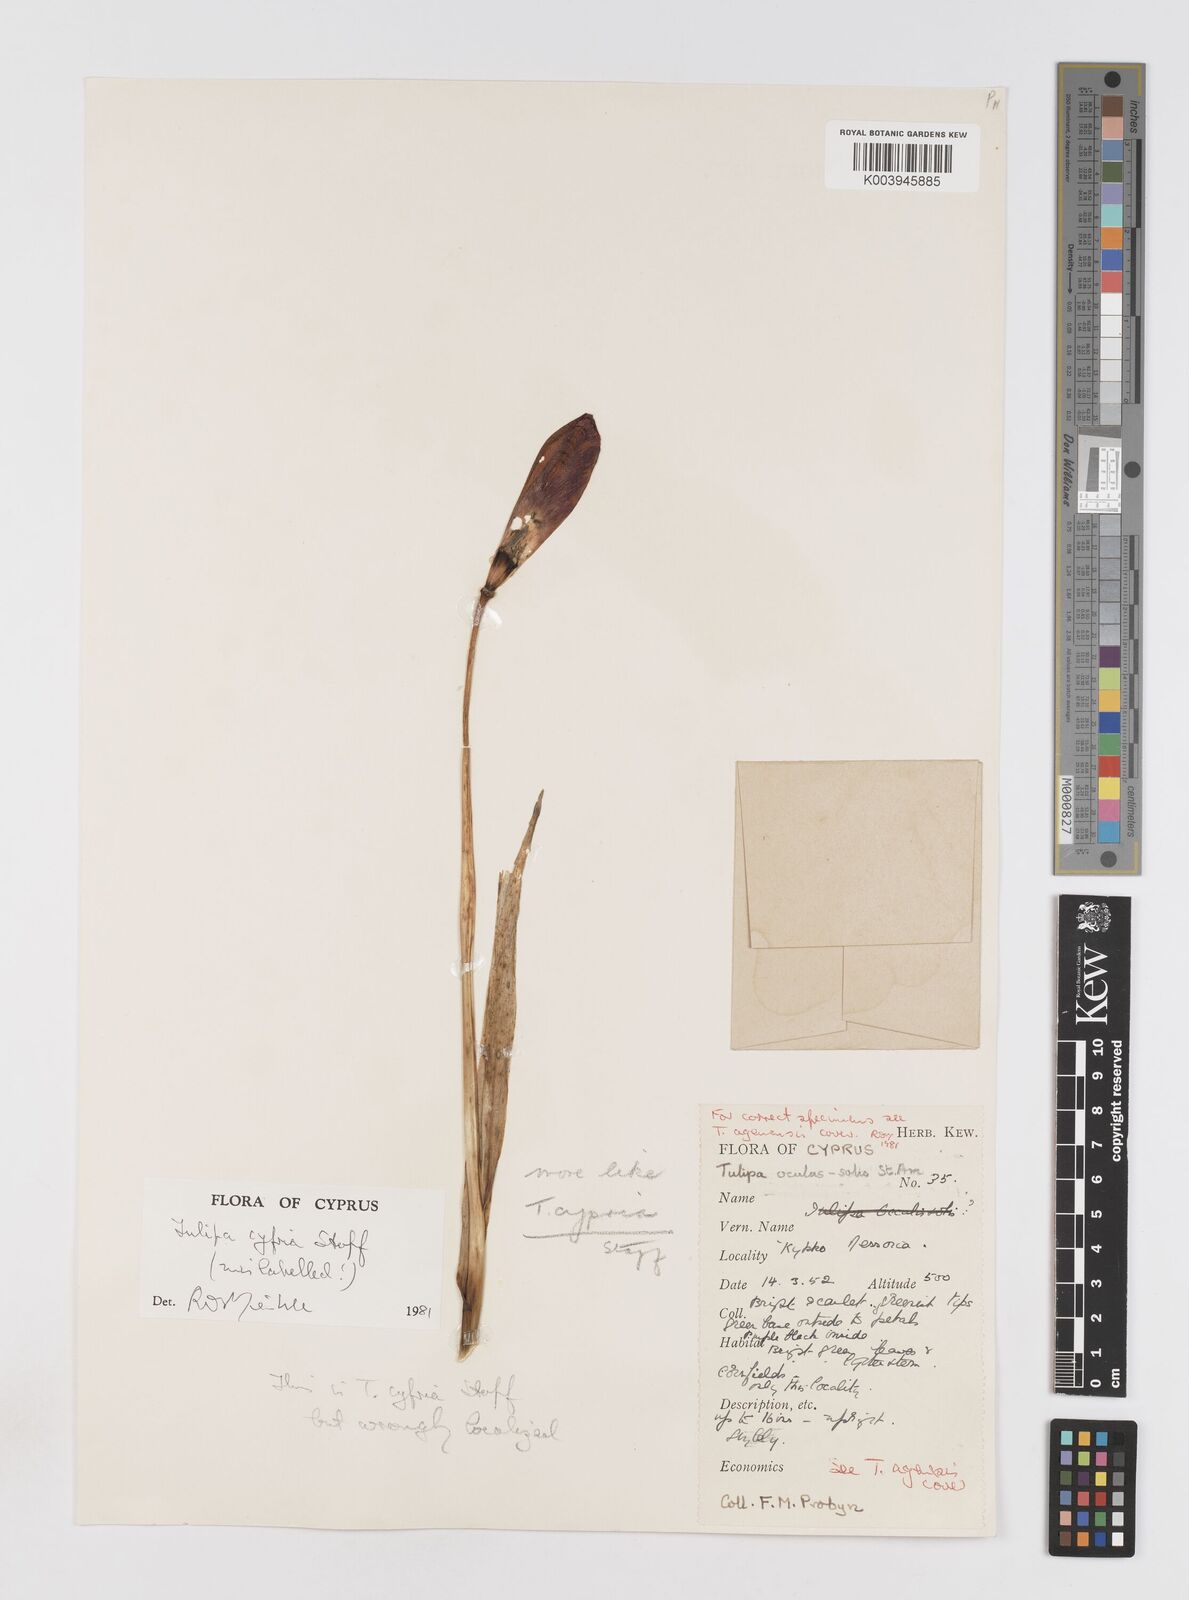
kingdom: Plantae
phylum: Tracheophyta
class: Liliopsida
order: Liliales
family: Liliaceae
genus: Tulipa
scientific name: Tulipa cypria
